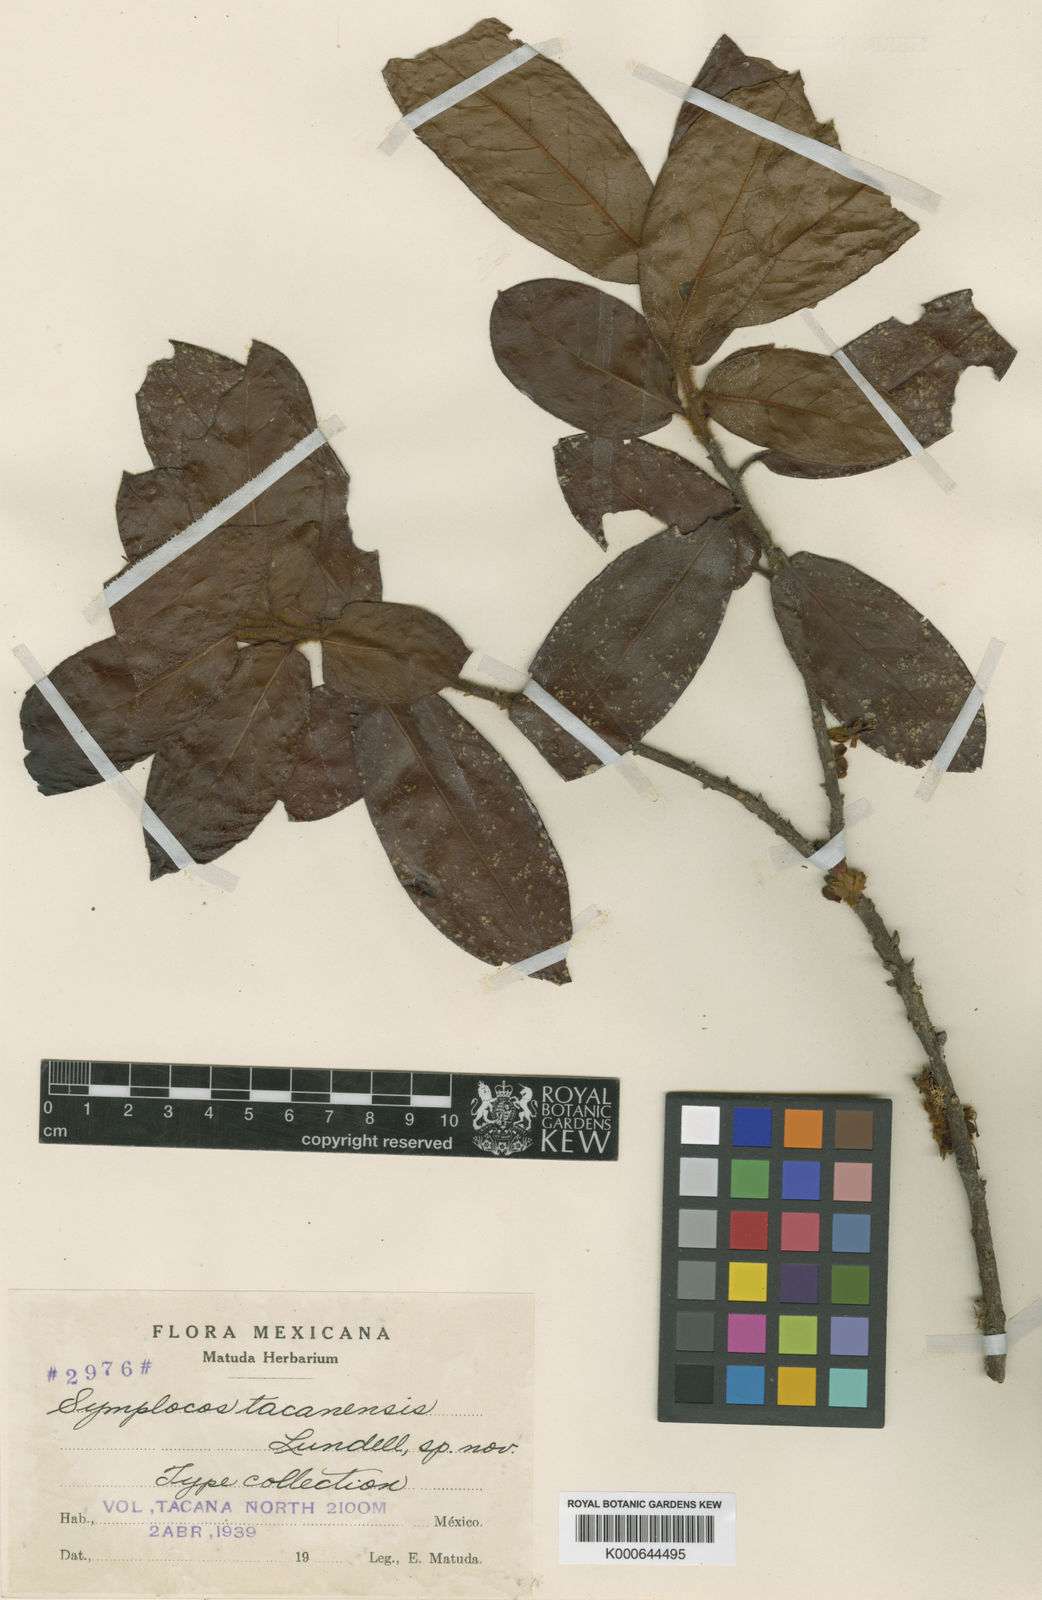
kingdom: Plantae
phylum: Tracheophyta
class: Magnoliopsida
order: Ericales
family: Symplocaceae
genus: Symplocos
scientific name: Symplocos tacanensis
